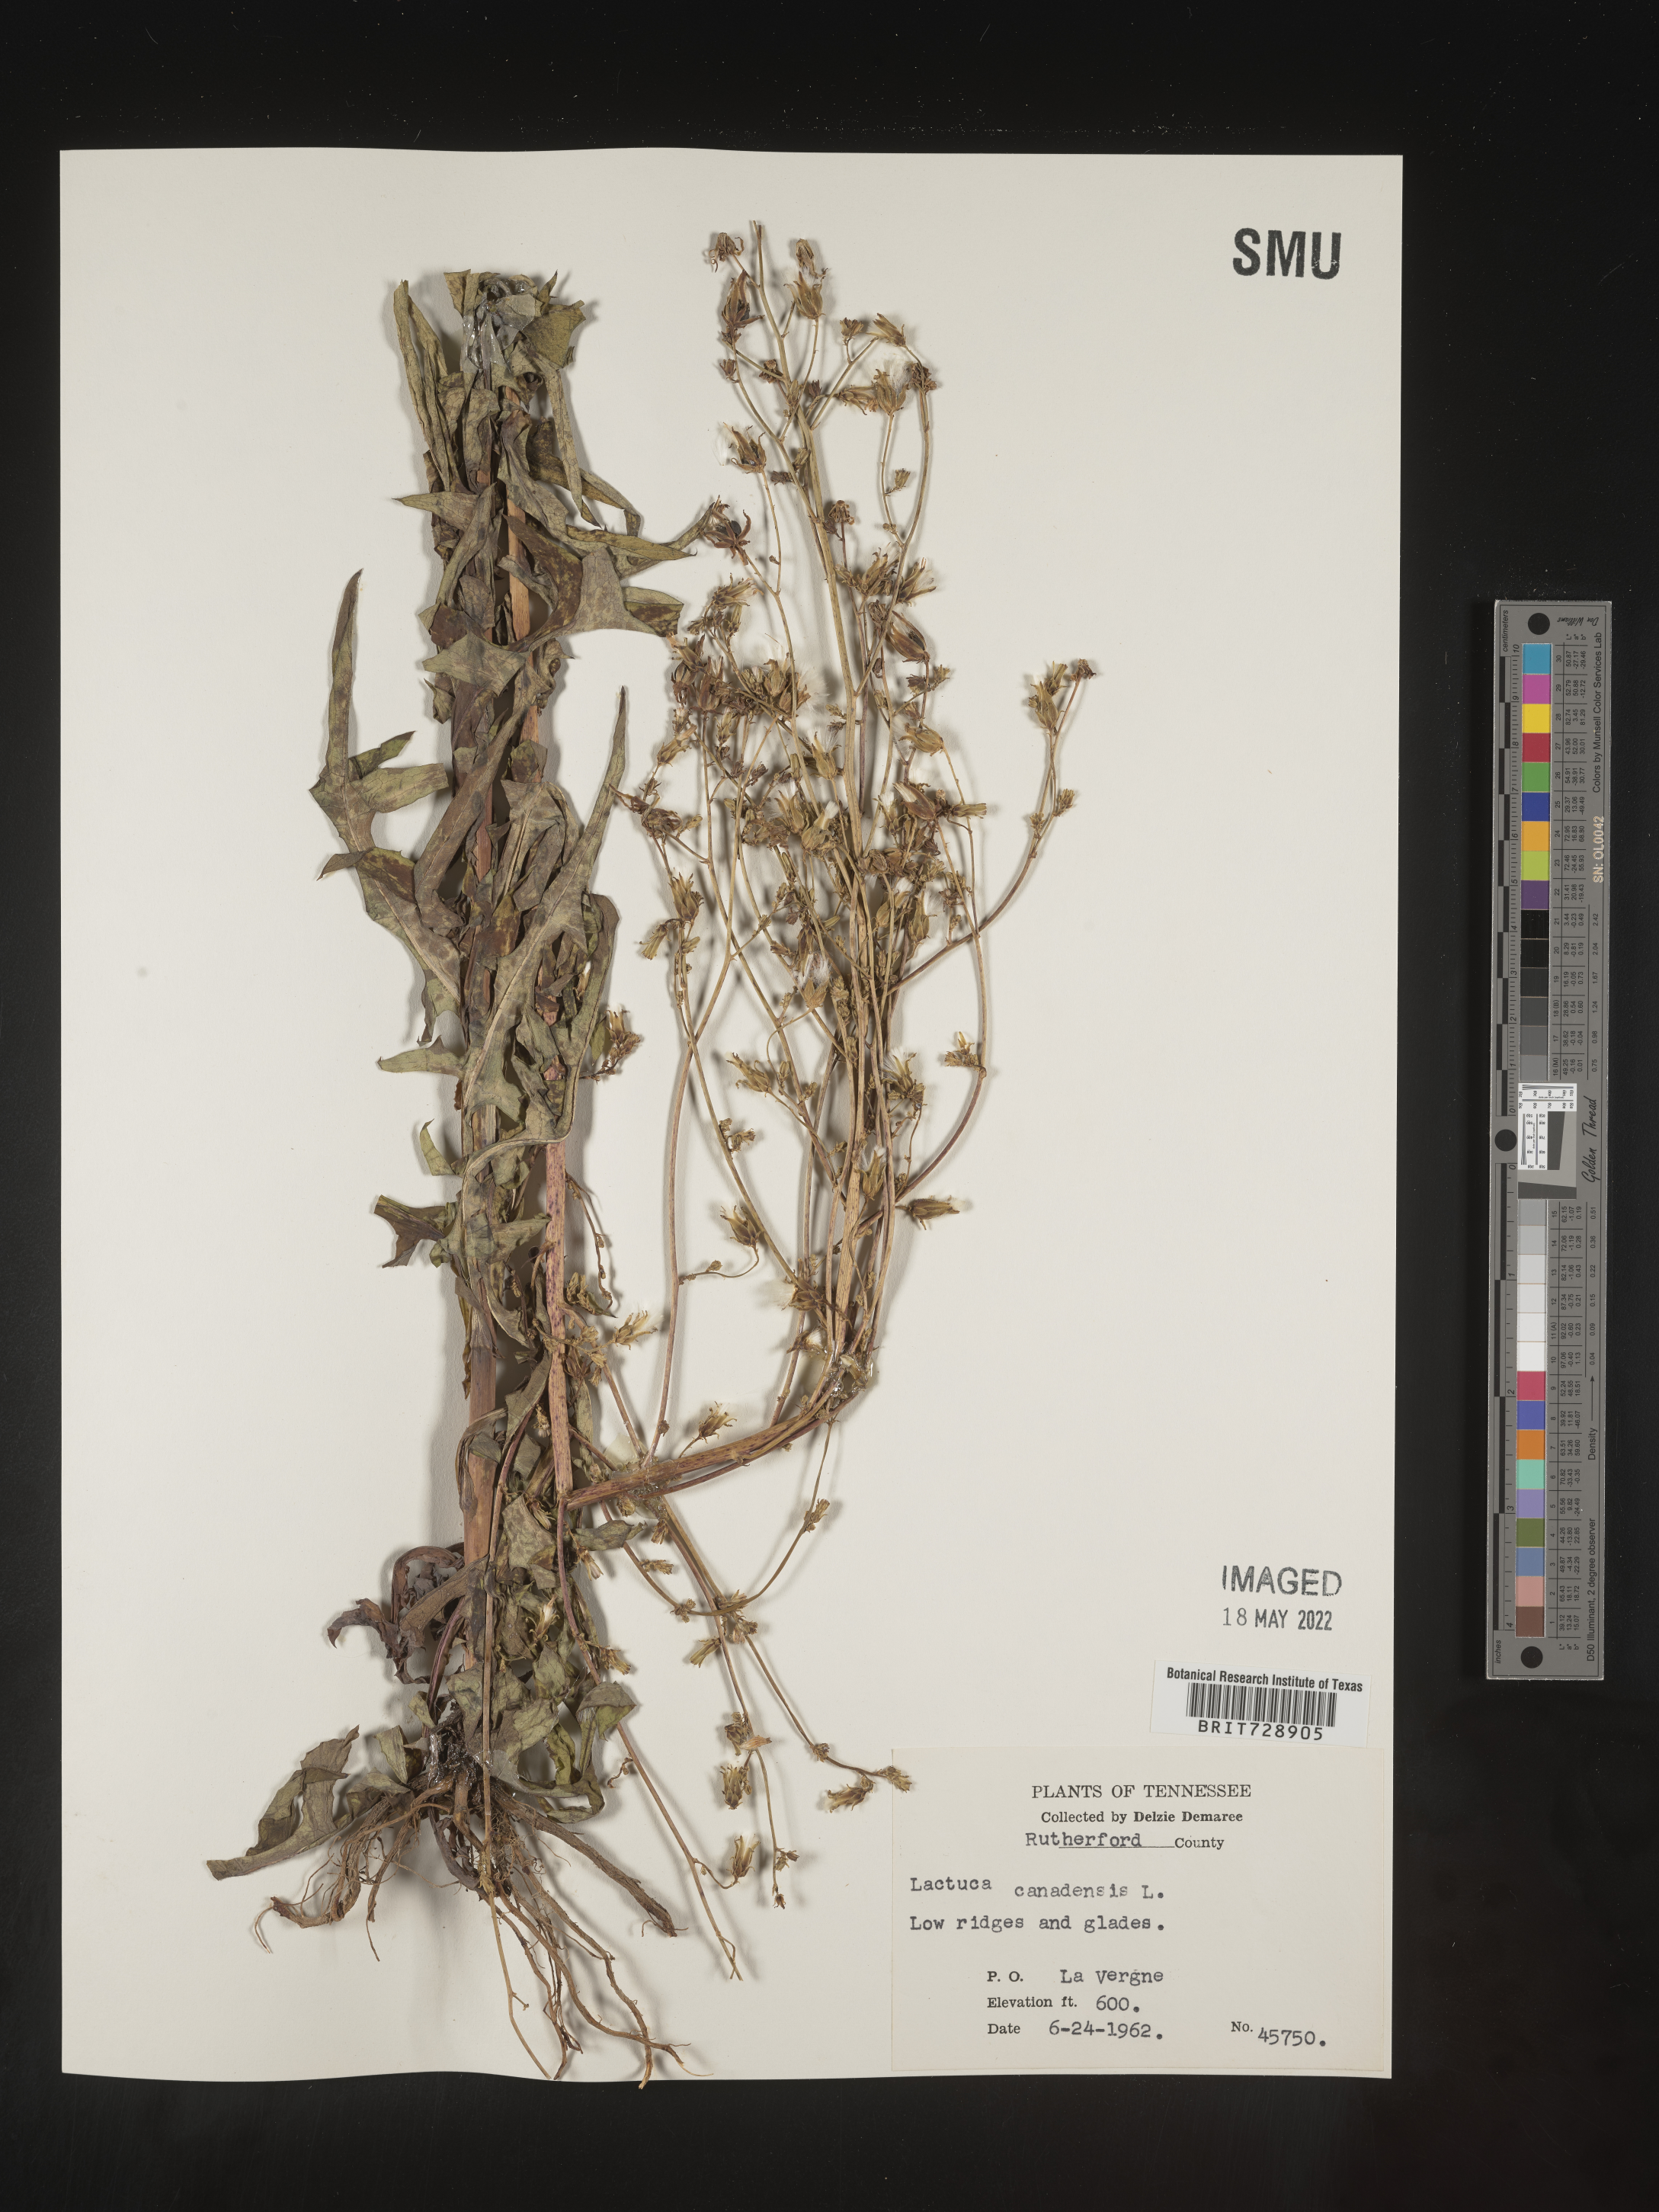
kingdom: Plantae
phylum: Tracheophyta
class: Magnoliopsida
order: Asterales
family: Asteraceae
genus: Lactuca
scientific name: Lactuca canadensis
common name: Canada lettuce
